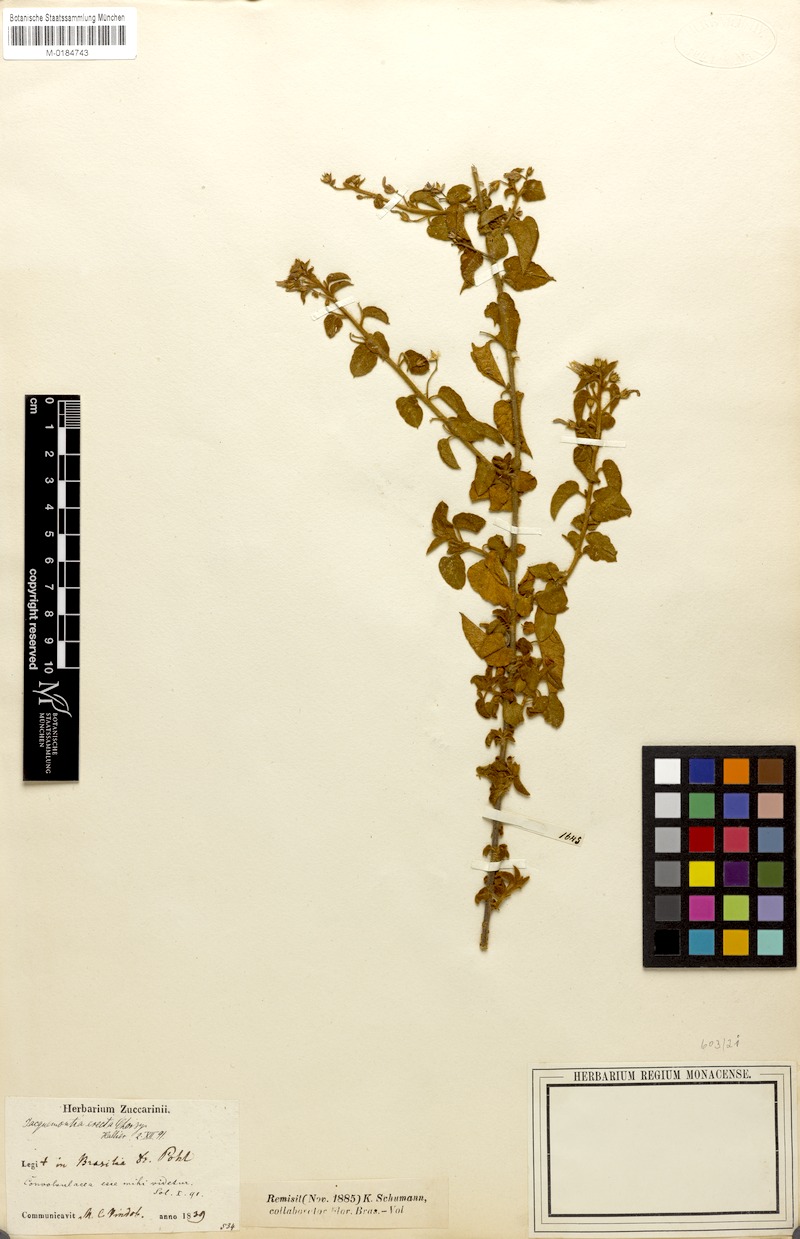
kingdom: Plantae
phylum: Tracheophyta
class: Magnoliopsida
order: Solanales
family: Convolvulaceae
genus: Jacquemontia
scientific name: Jacquemontia evolvuloides
